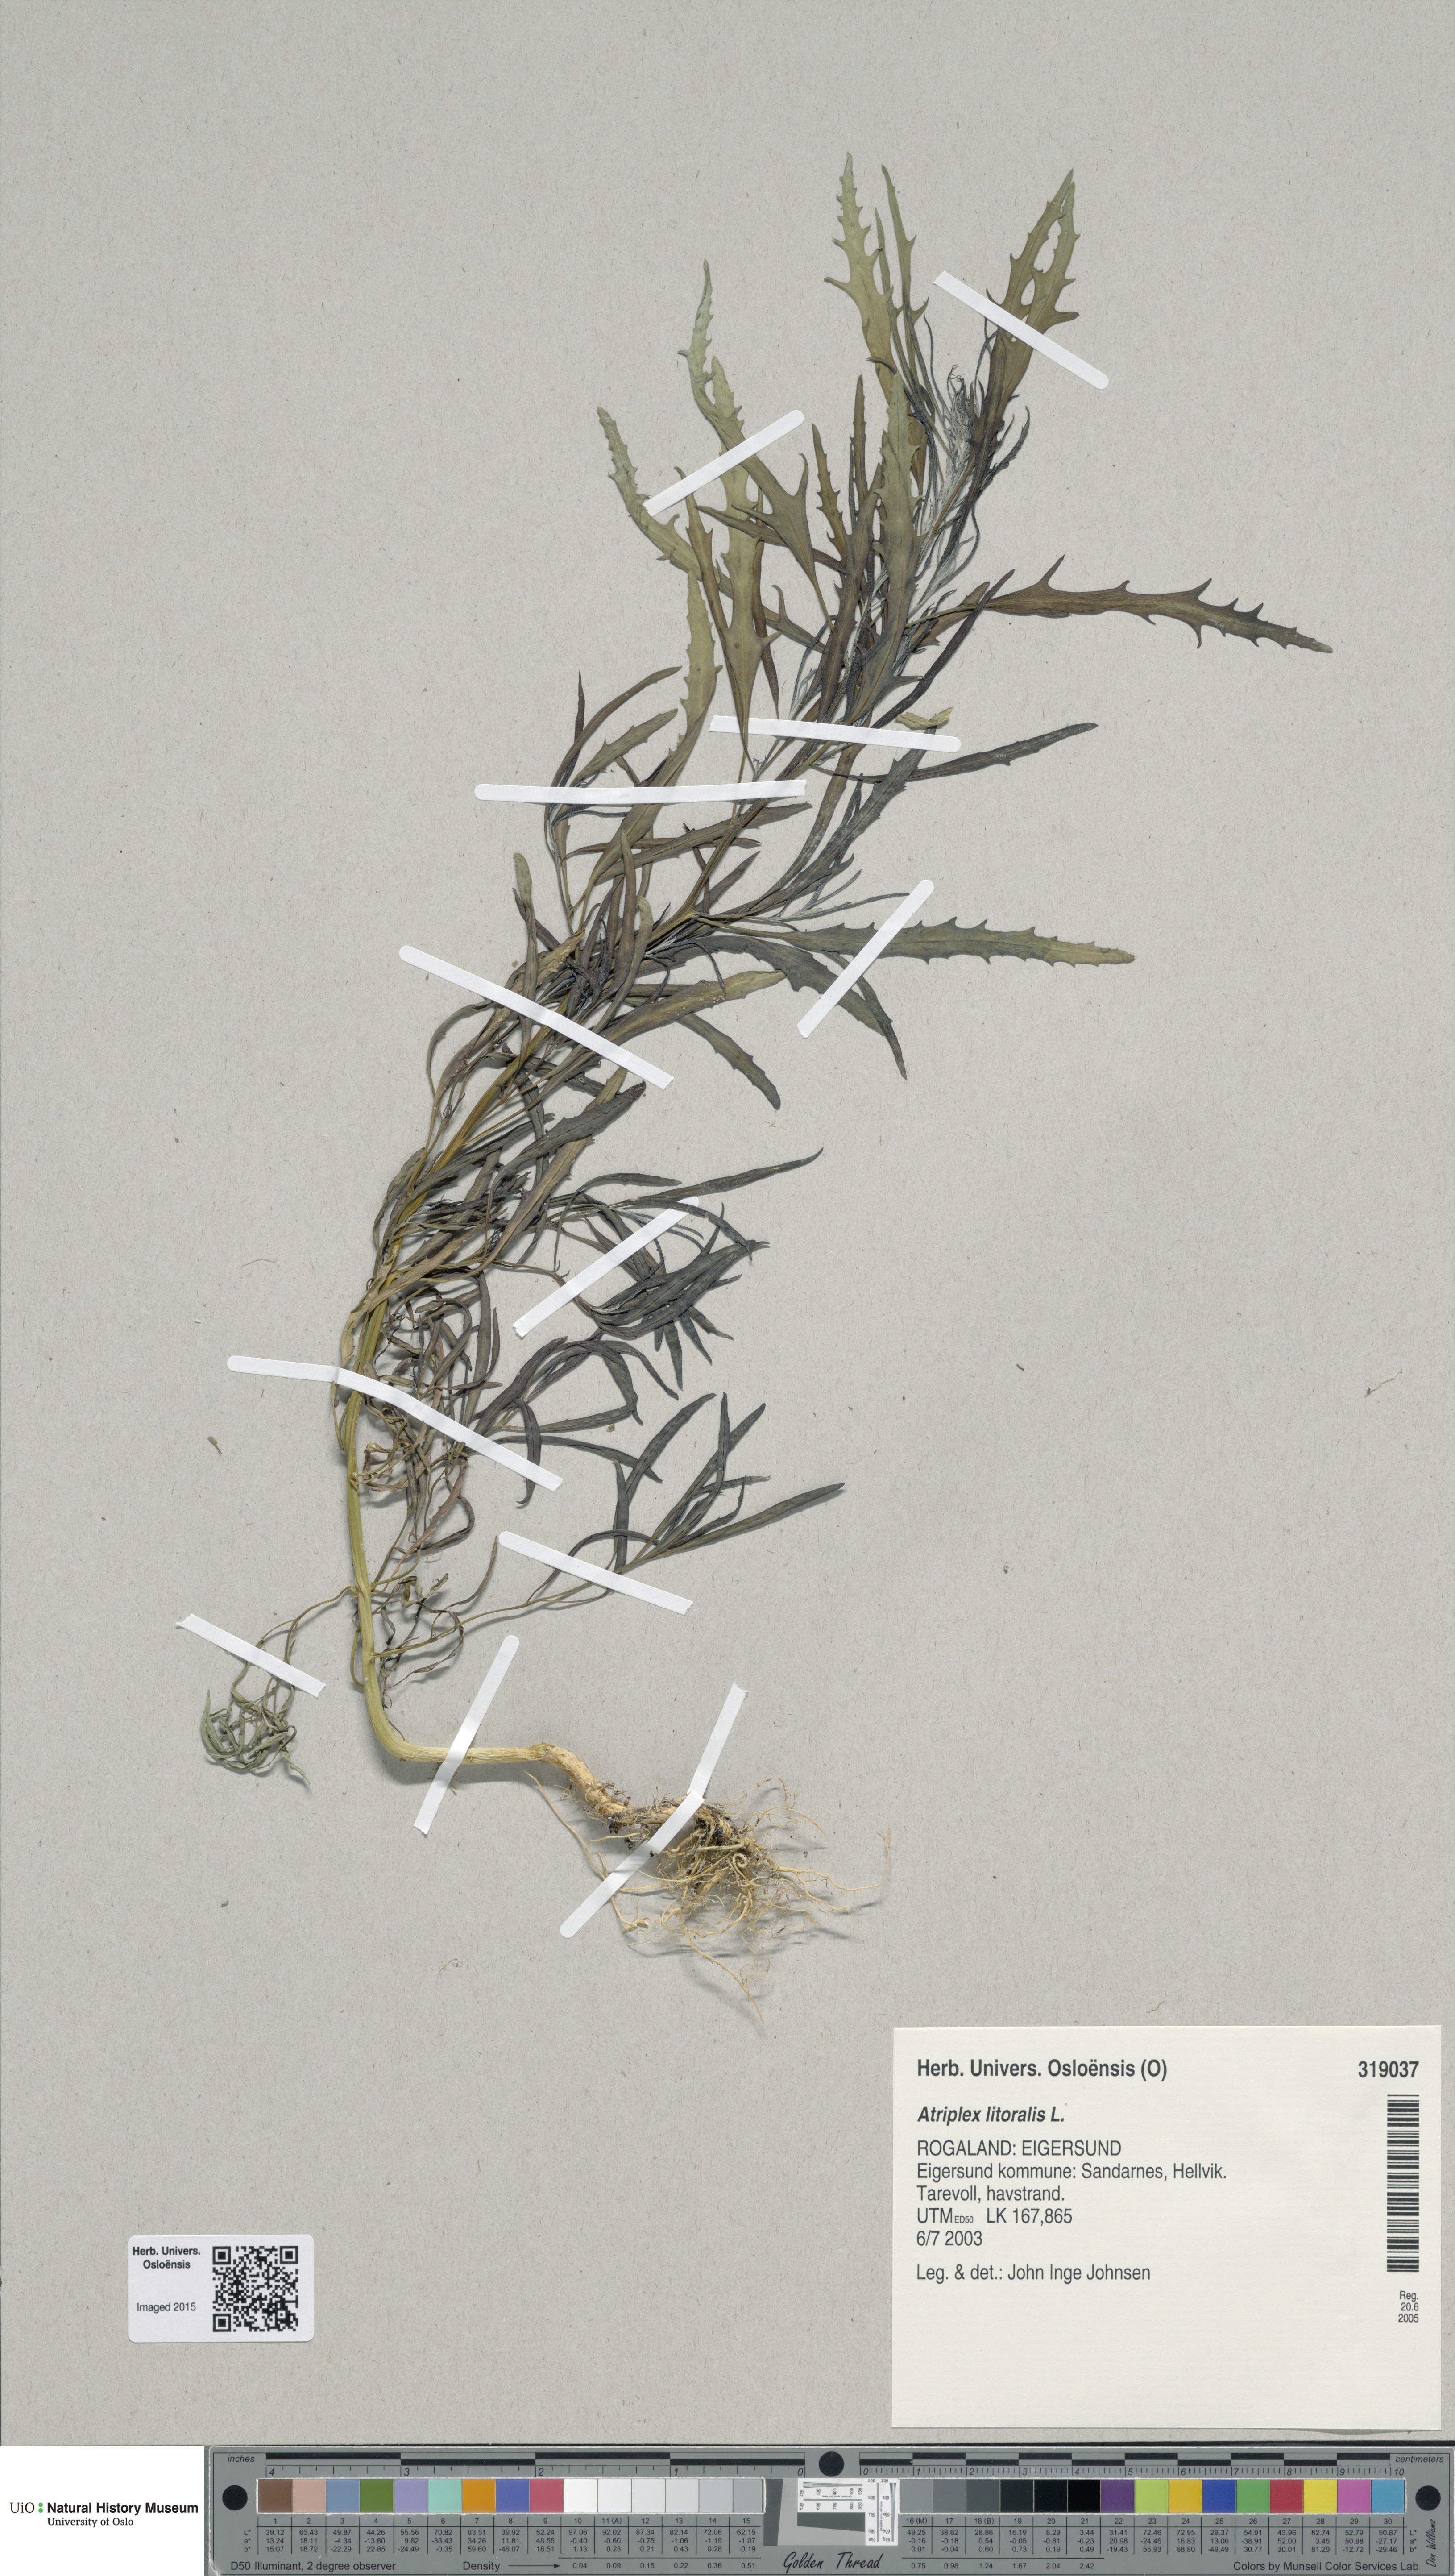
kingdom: Plantae
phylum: Tracheophyta
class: Magnoliopsida
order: Caryophyllales
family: Amaranthaceae
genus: Atriplex
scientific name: Atriplex littoralis
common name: Grass-leaved orache
